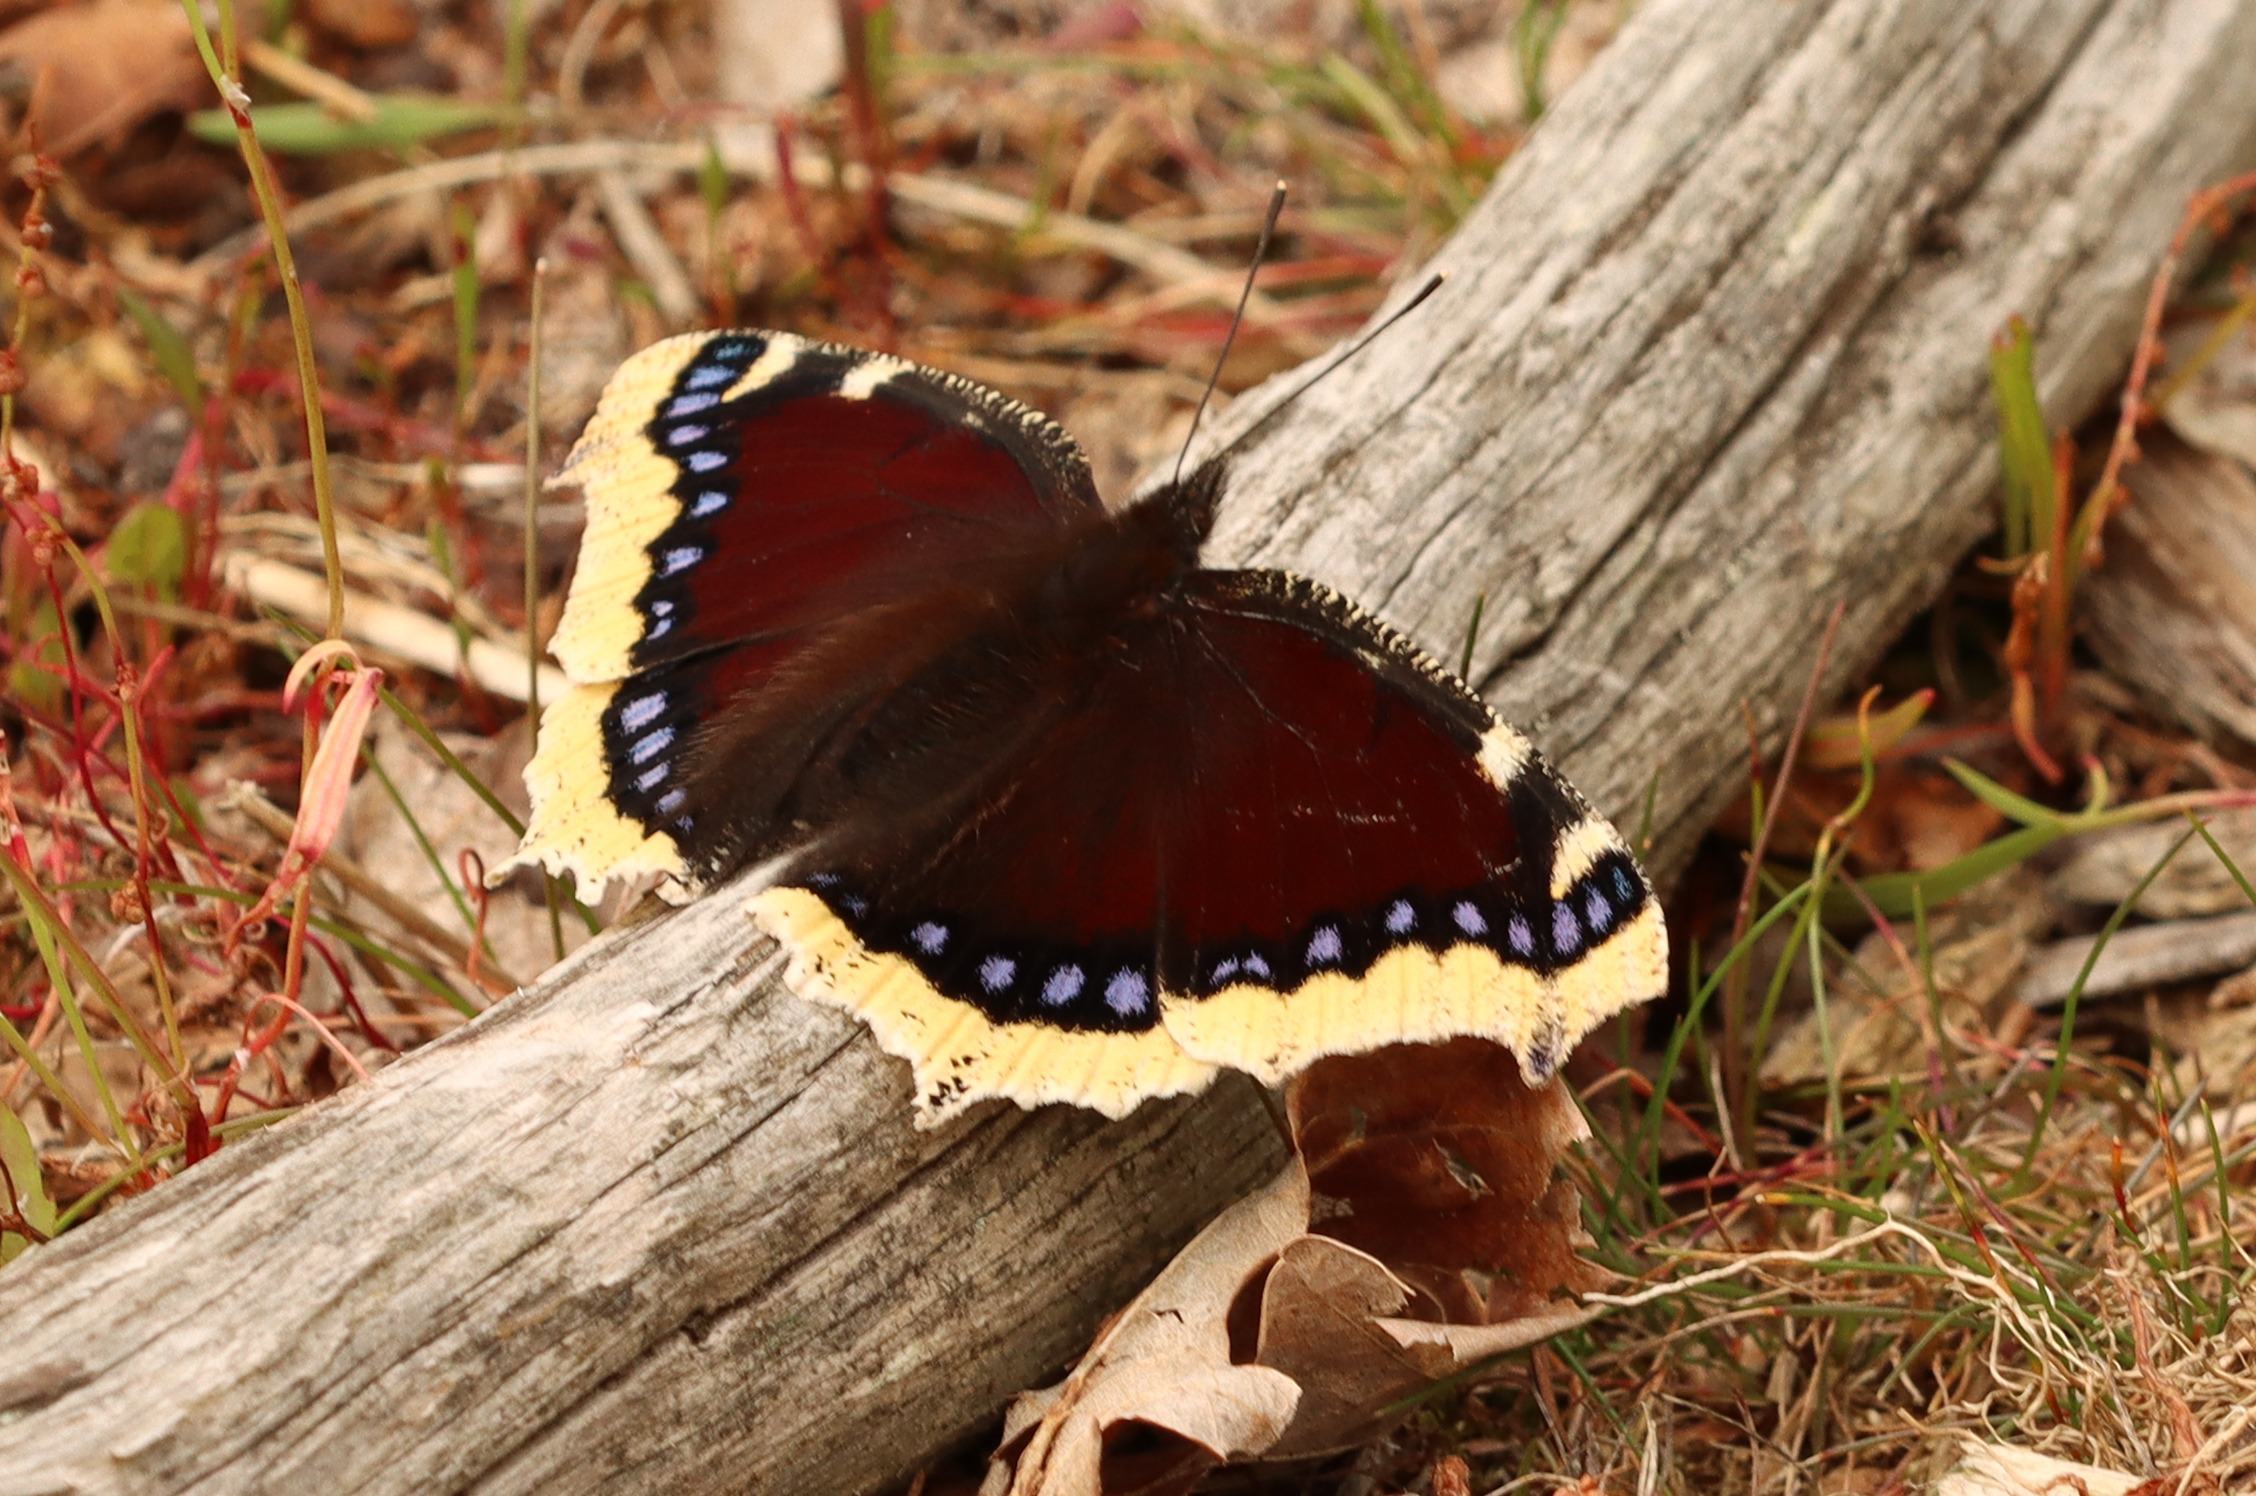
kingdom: Animalia
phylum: Arthropoda
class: Insecta
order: Lepidoptera
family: Nymphalidae
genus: Nymphalis
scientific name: Nymphalis antiopa
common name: Sørgekåbe
